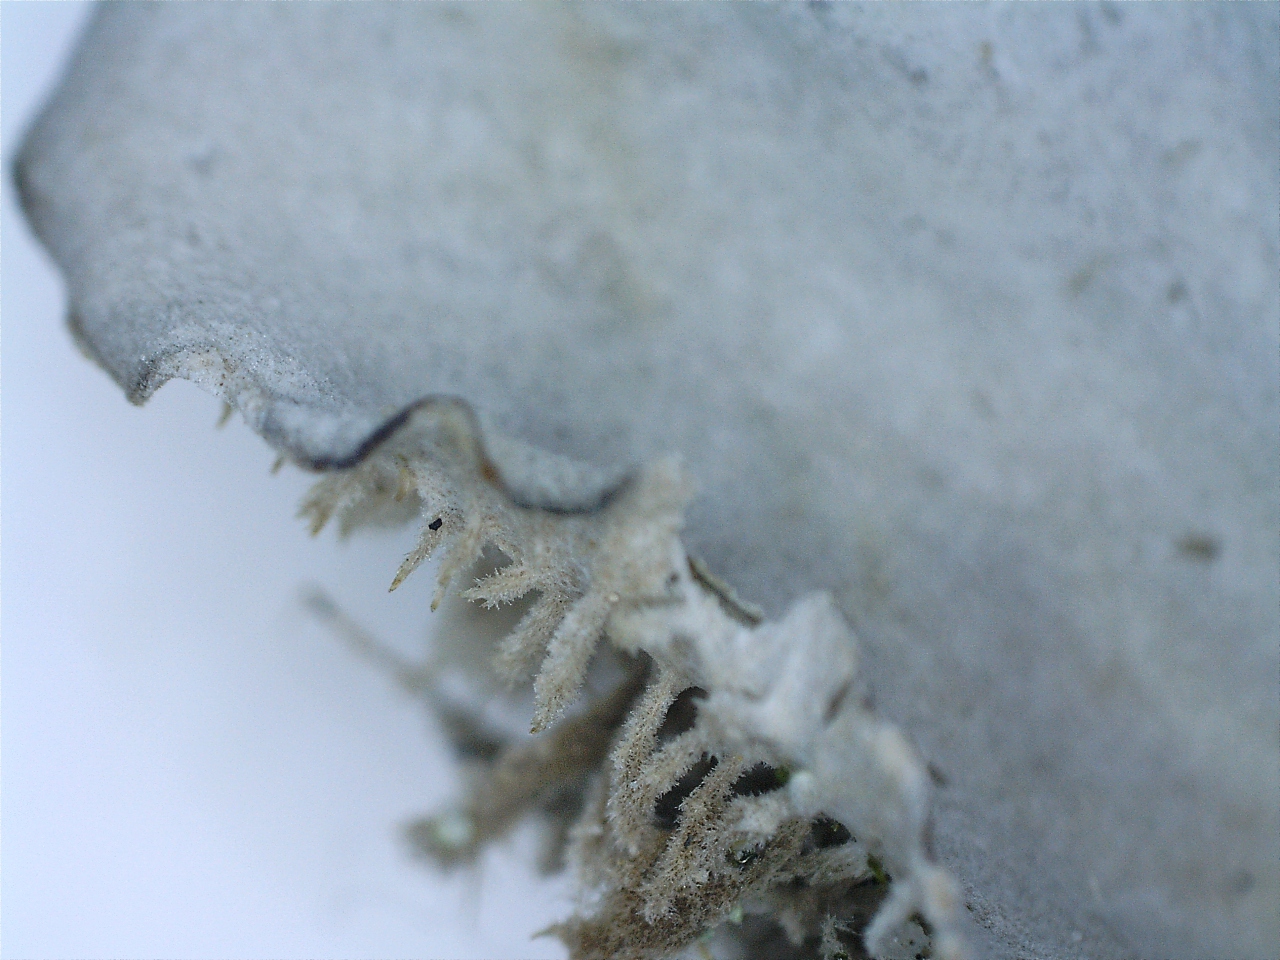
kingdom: Fungi
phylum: Ascomycota
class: Lecanoromycetes
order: Peltigerales
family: Peltigeraceae
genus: Peltigera
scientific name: Peltigera membranacea
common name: tynd skjoldlav
